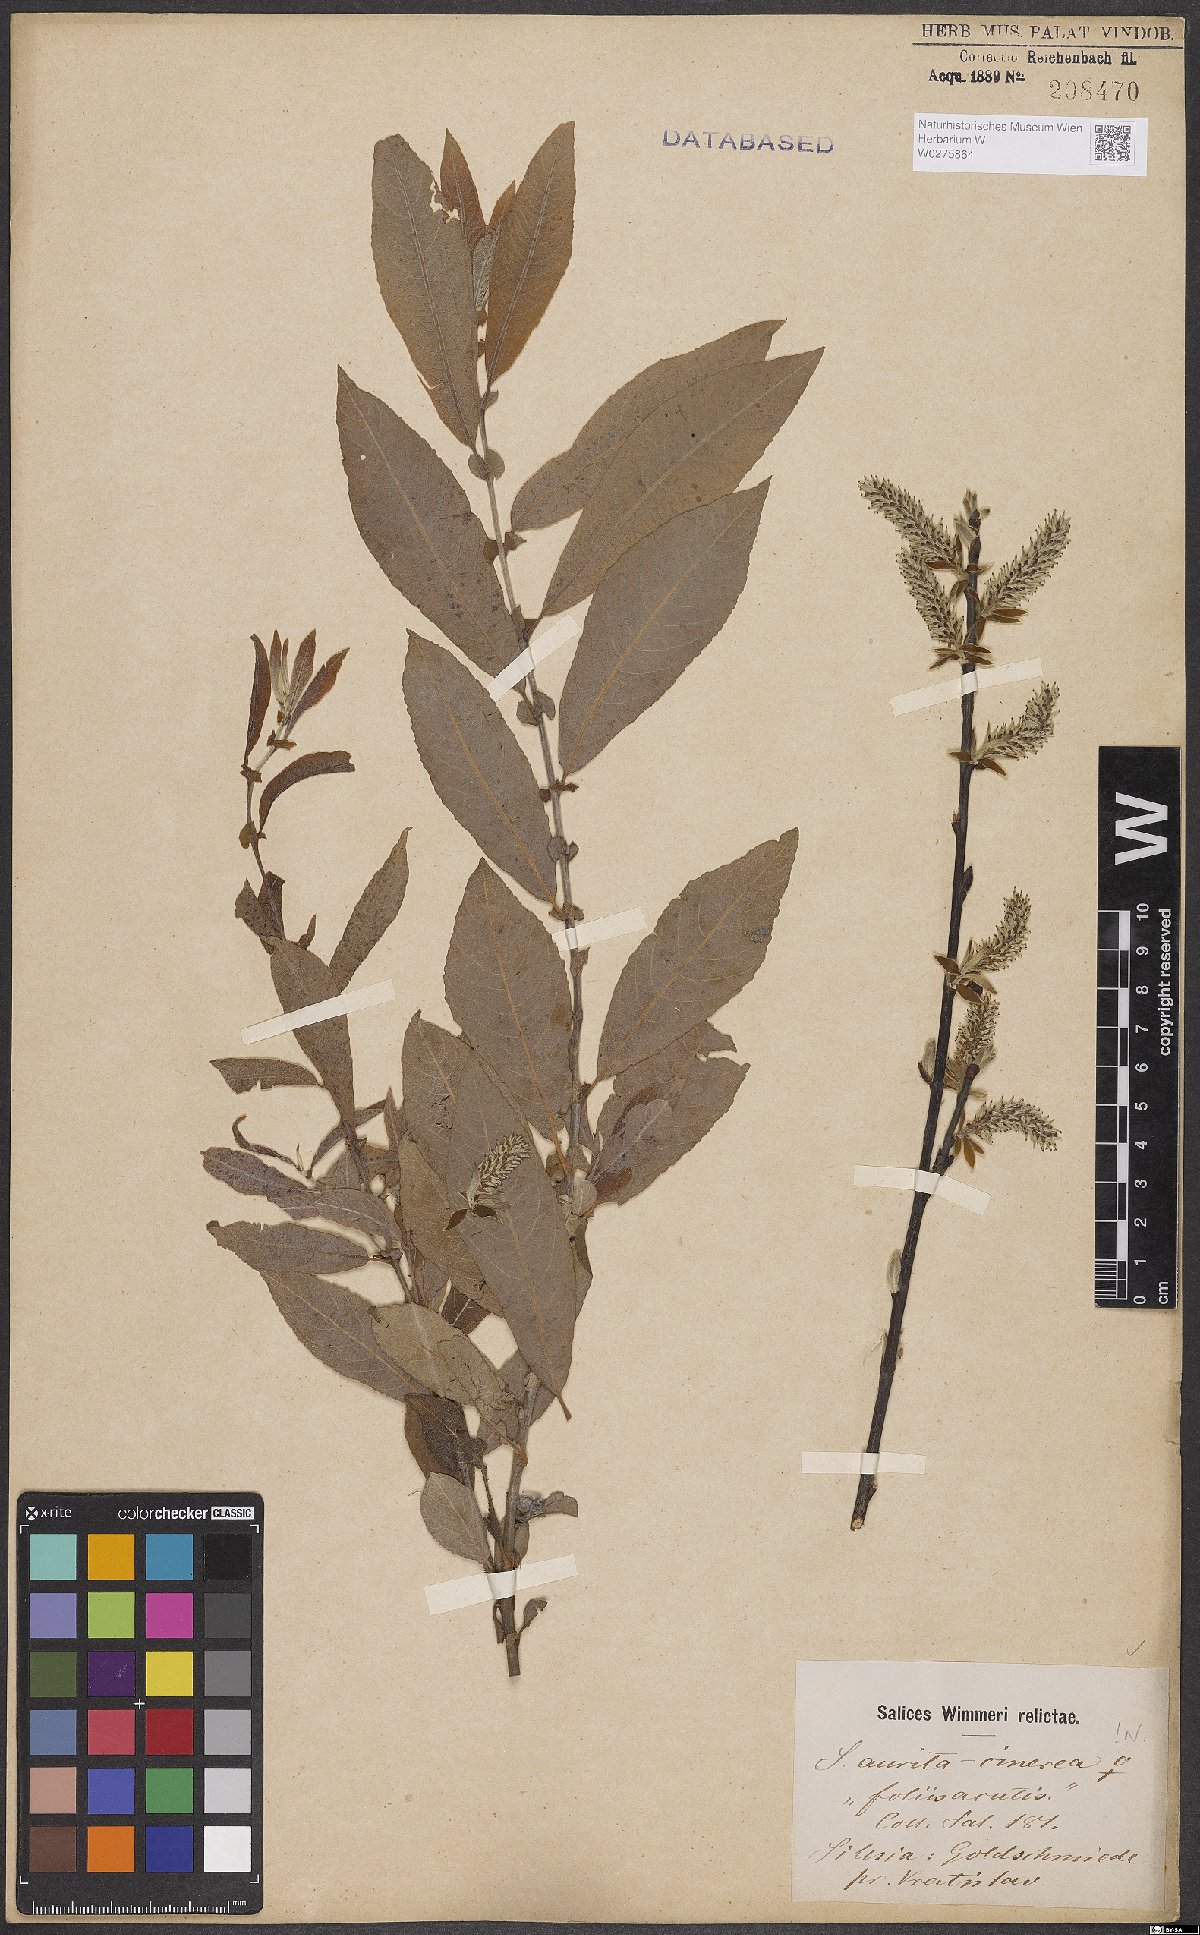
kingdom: Plantae
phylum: Tracheophyta
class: Magnoliopsida
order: Malpighiales
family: Salicaceae
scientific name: Salicaceae
